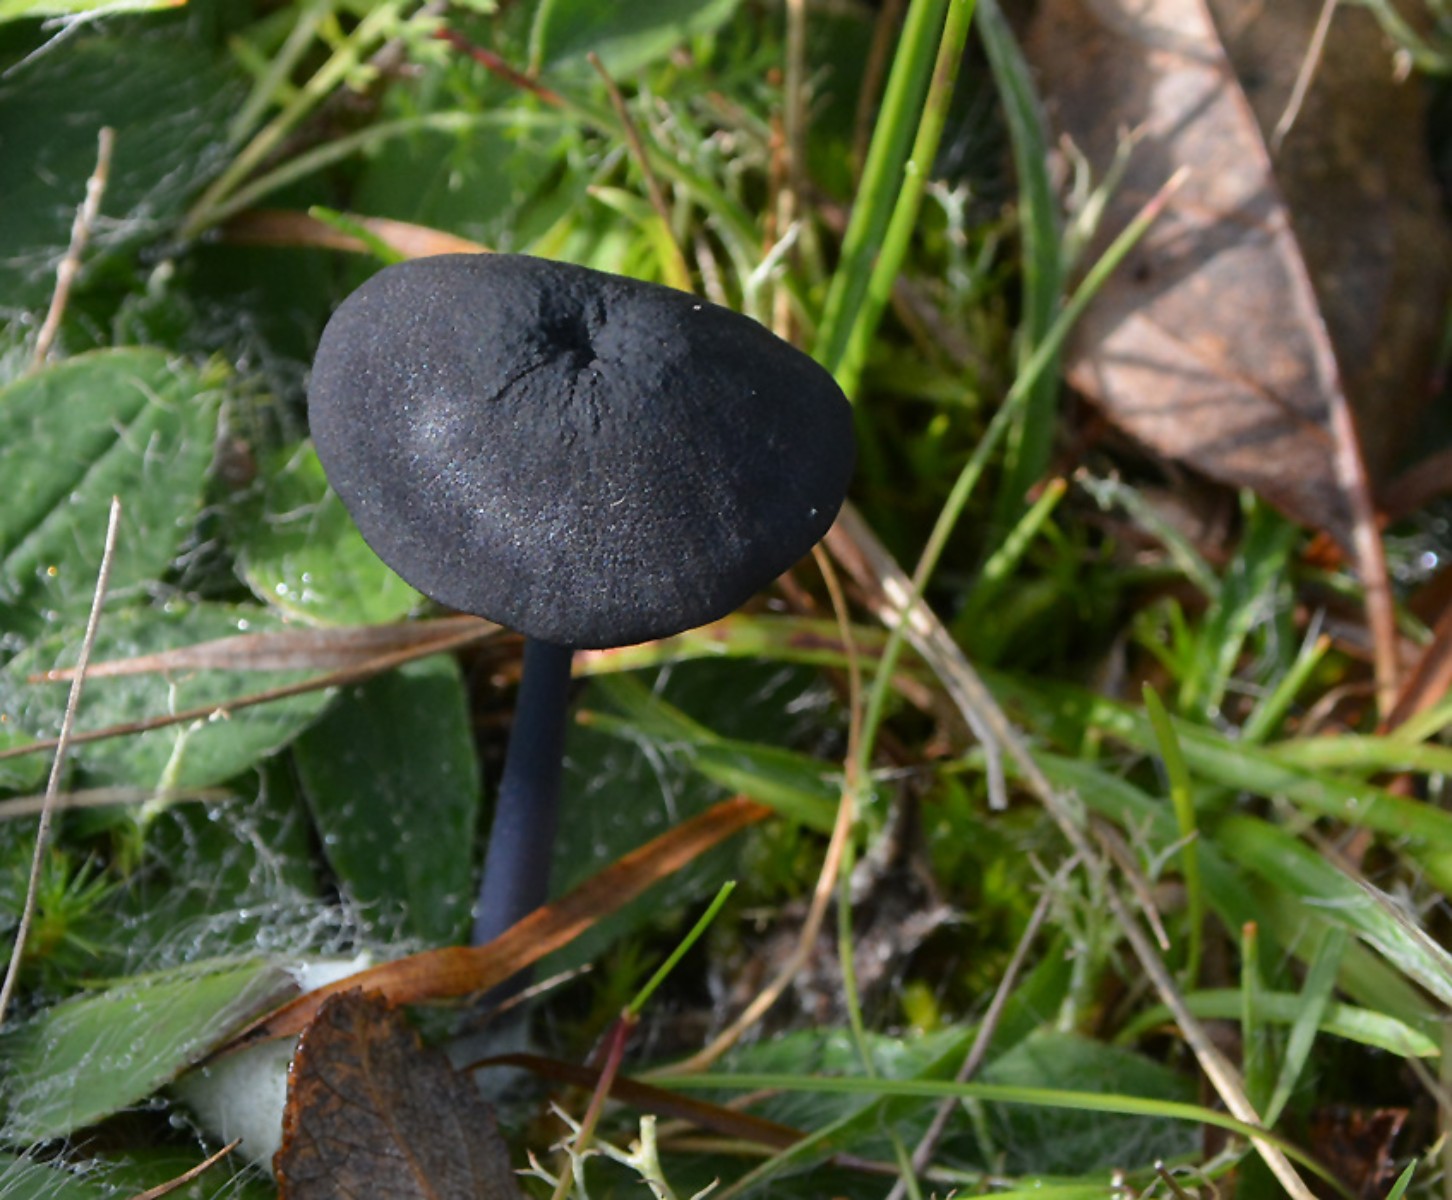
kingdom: Fungi
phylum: Basidiomycota
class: Agaricomycetes
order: Agaricales
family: Entolomataceae
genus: Entoloma
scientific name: Entoloma chalybeum
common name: blåbladet rødblad
